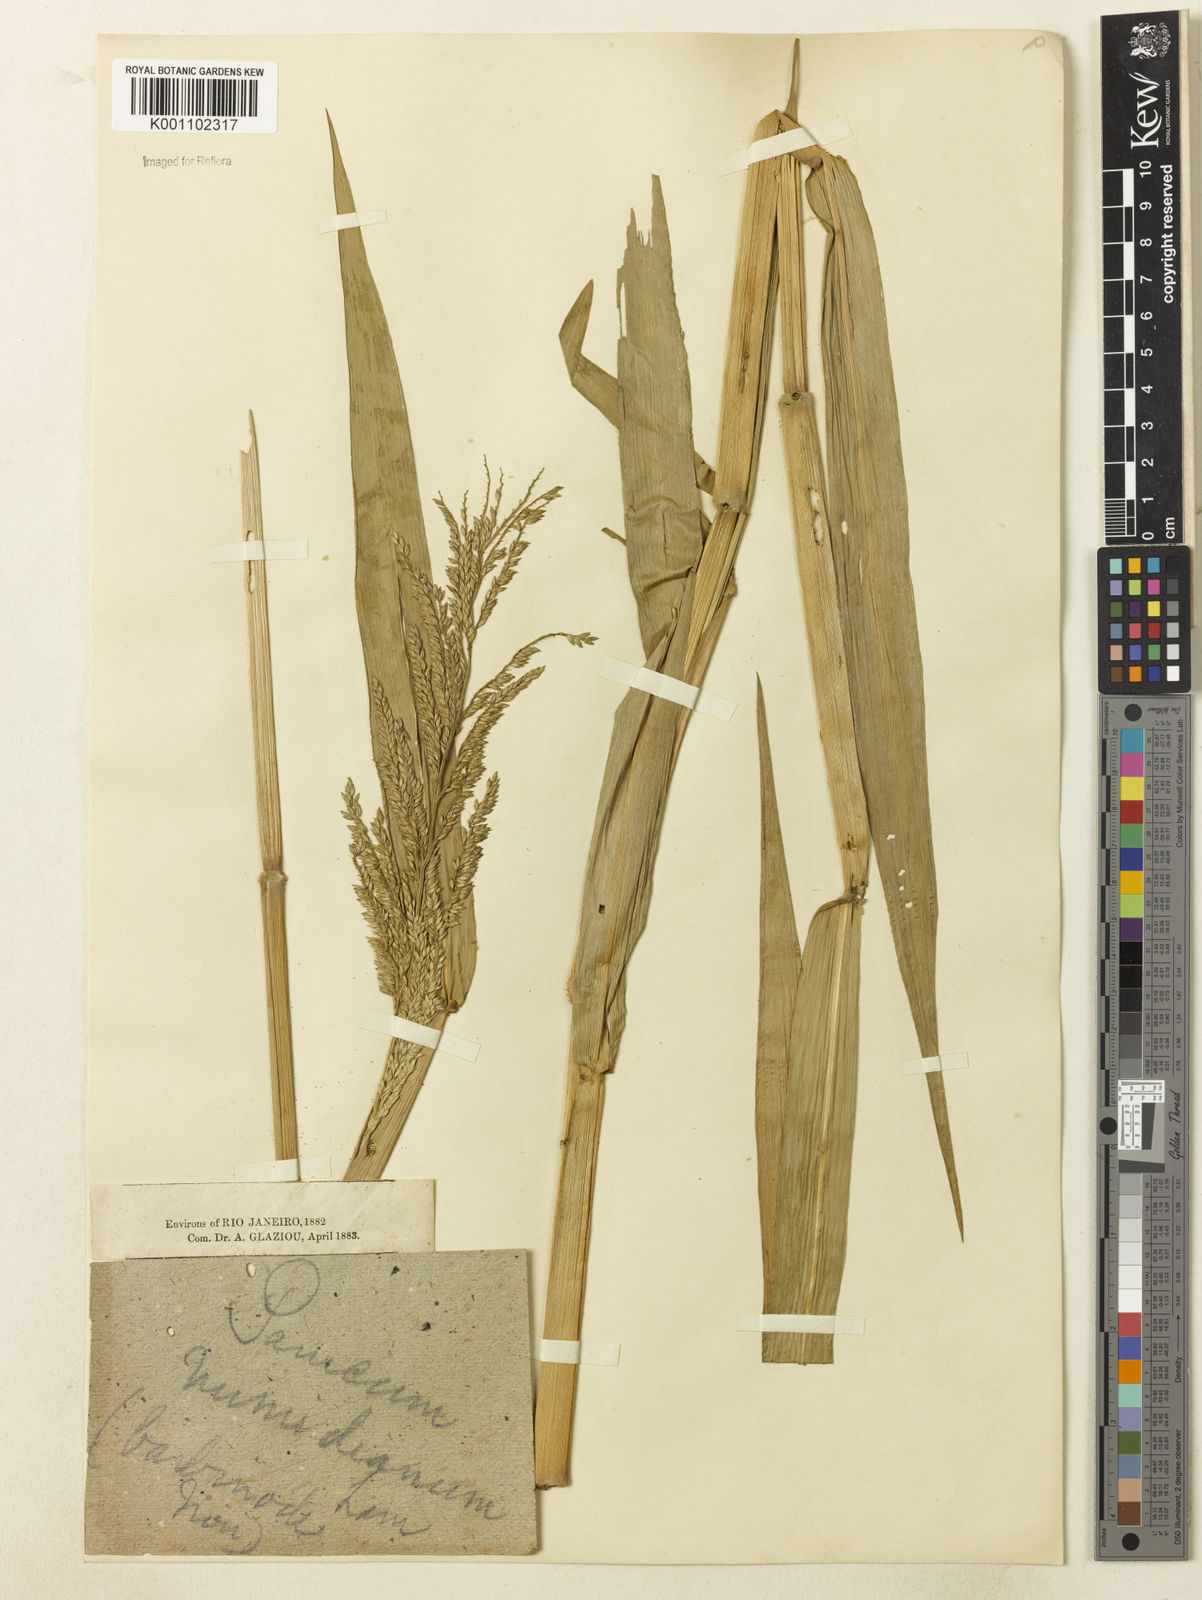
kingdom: Plantae
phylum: Tracheophyta
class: Liliopsida
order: Poales
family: Poaceae
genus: Urochloa
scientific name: Urochloa mutica
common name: Para grass
